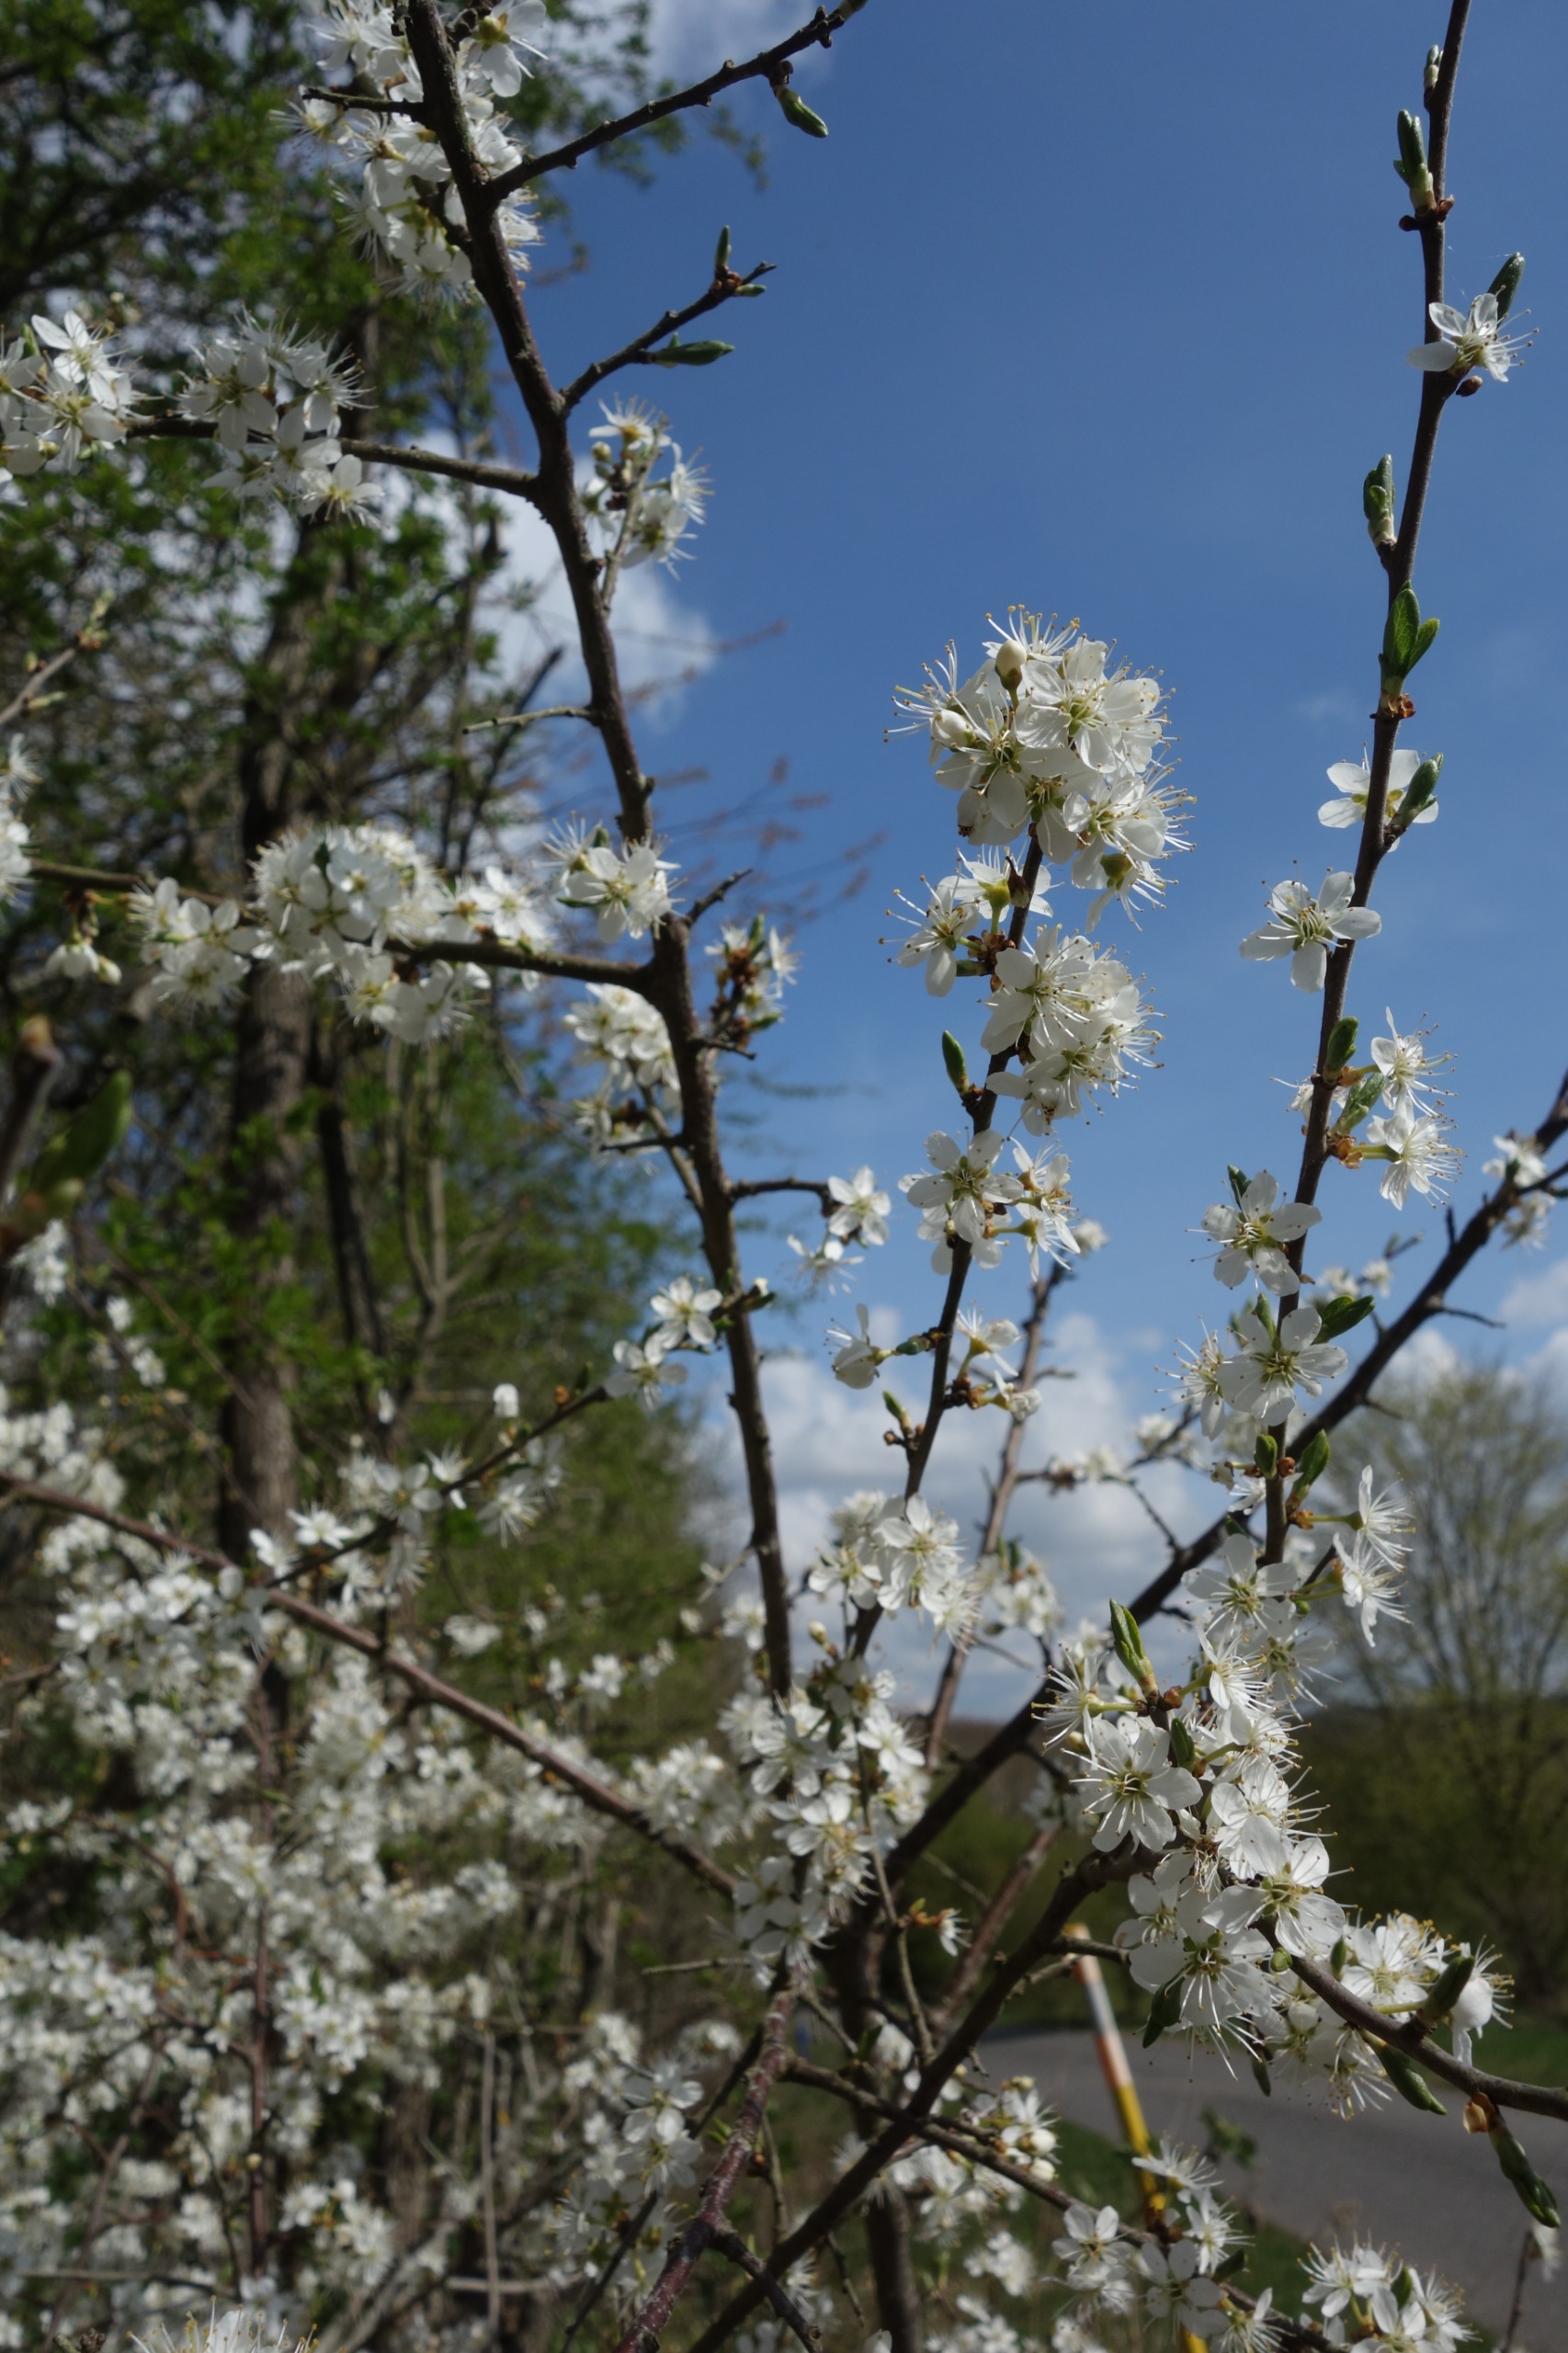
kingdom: Plantae
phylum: Tracheophyta
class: Magnoliopsida
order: Rosales
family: Rosaceae
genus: Prunus
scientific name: Prunus spinosa
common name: Slåen
